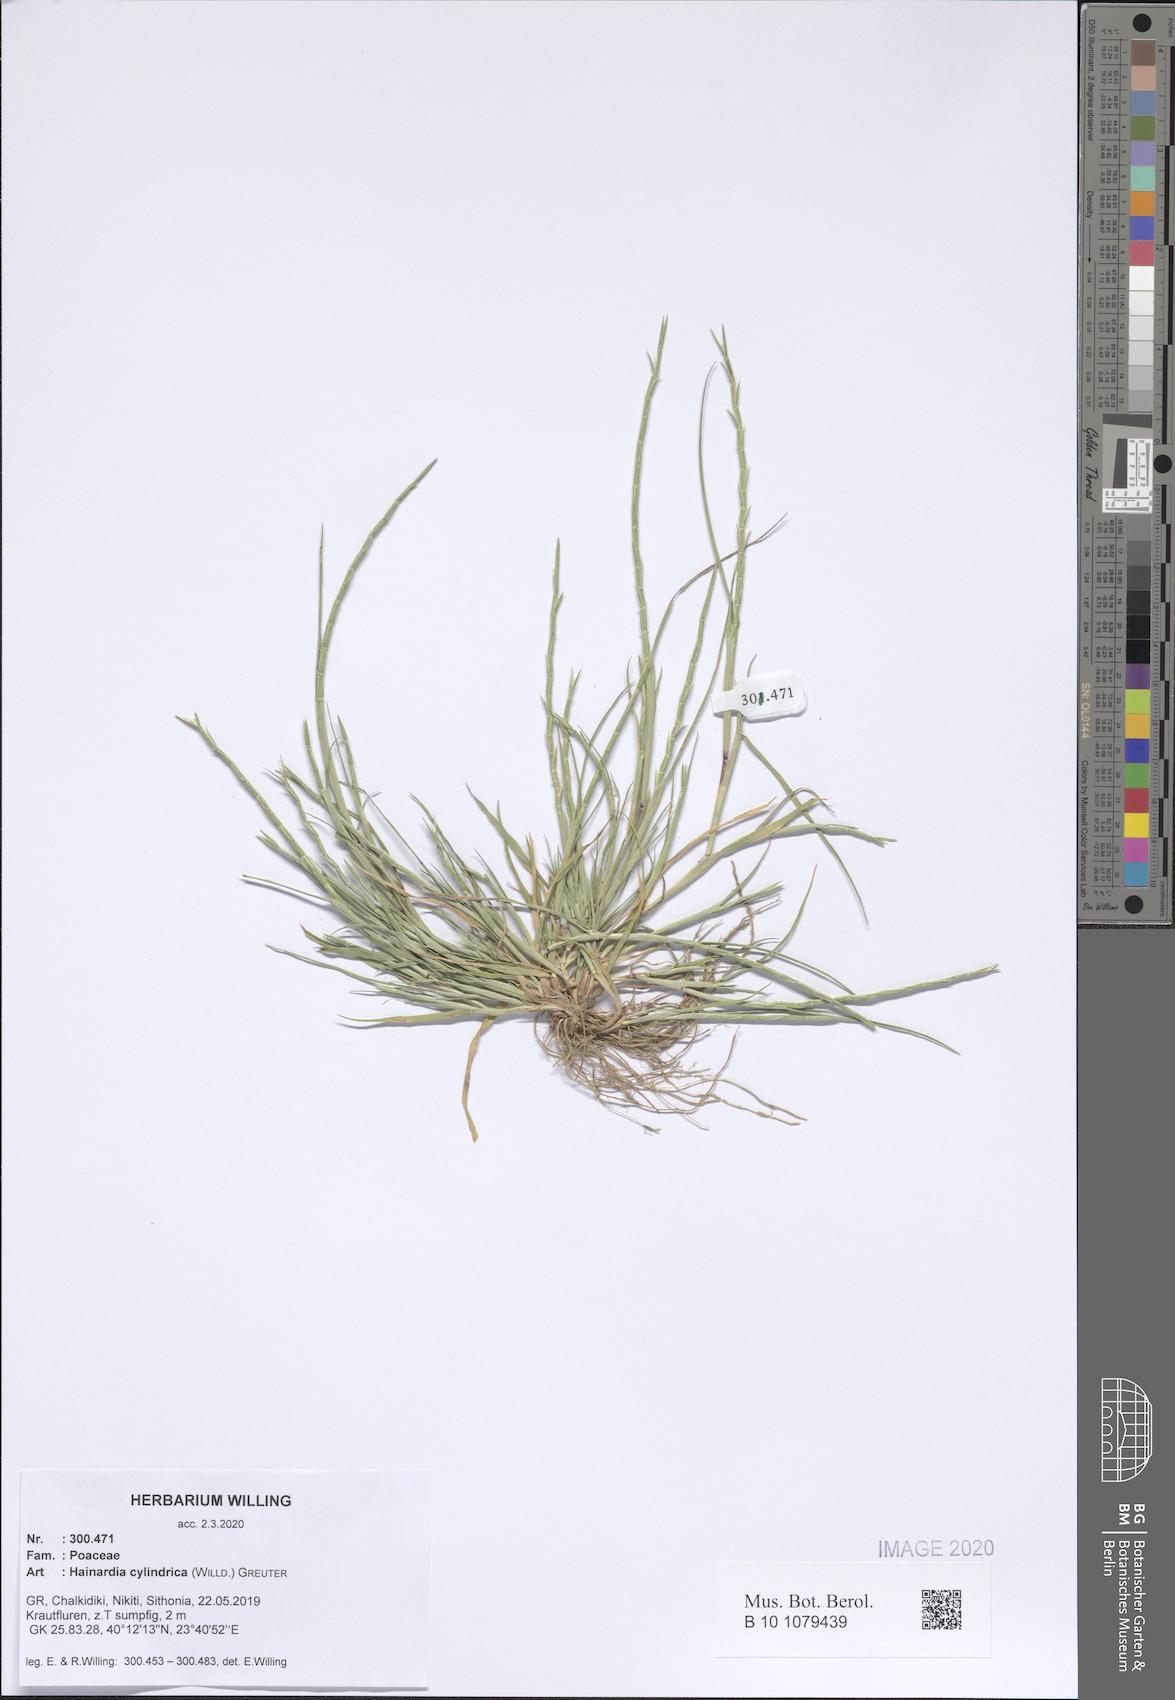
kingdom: Plantae
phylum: Tracheophyta
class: Liliopsida
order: Poales
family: Poaceae
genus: Parapholis
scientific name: Parapholis cylindrica
